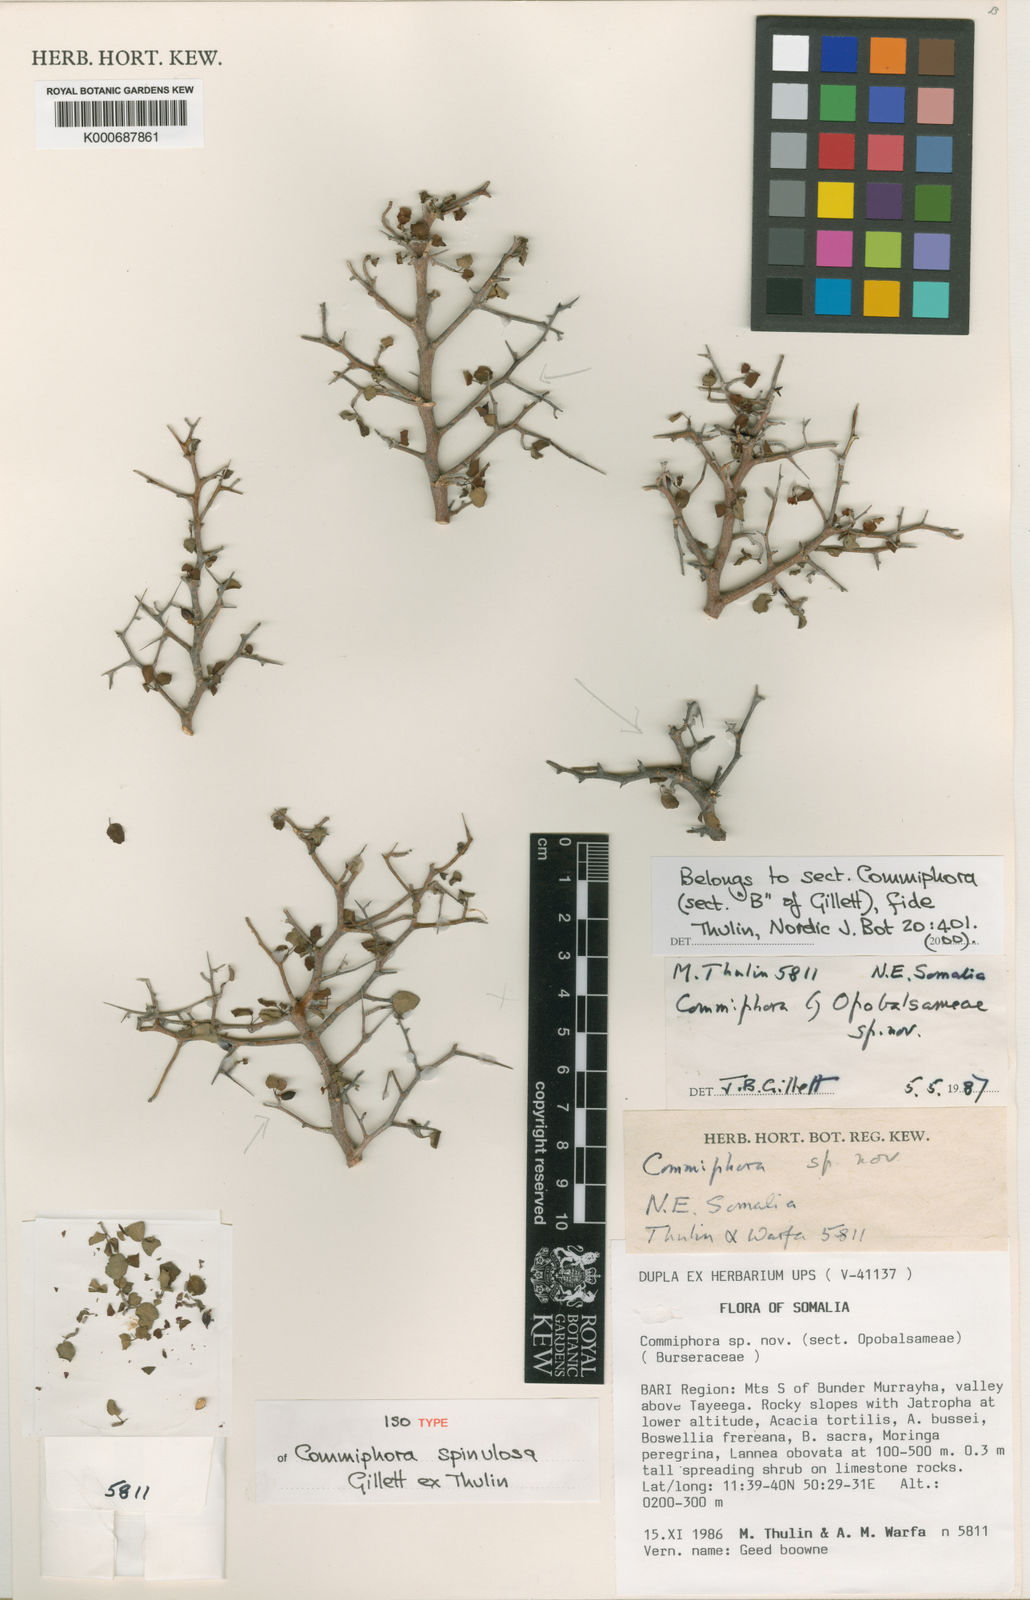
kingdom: Plantae
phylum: Tracheophyta
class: Magnoliopsida
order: Sapindales
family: Burseraceae
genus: Commiphora
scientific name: Commiphora spinulosa
